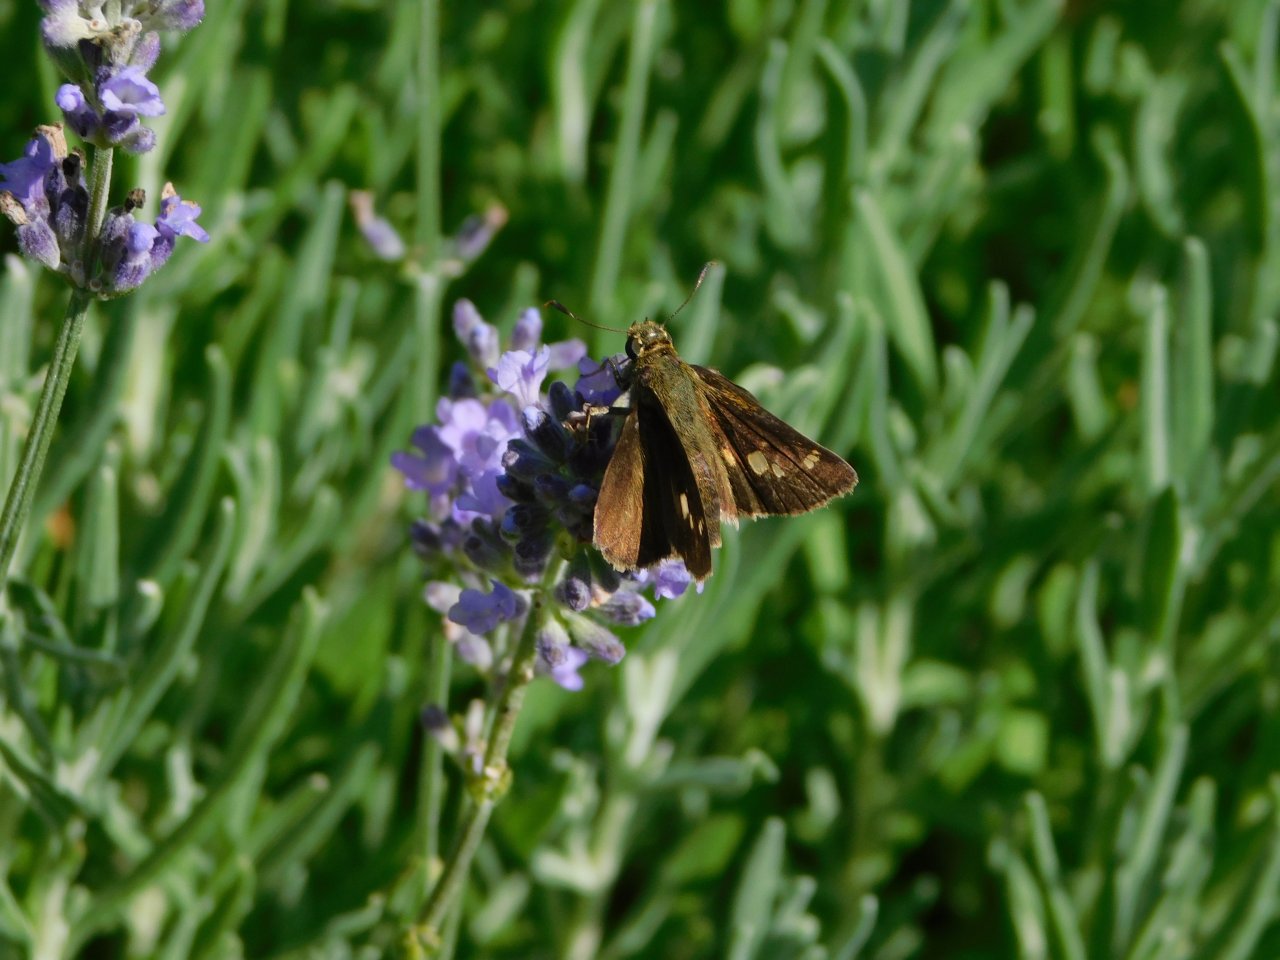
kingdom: Animalia
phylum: Arthropoda
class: Insecta
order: Lepidoptera
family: Hesperiidae
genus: Euphyes
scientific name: Euphyes vestris
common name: Dun Skipper
